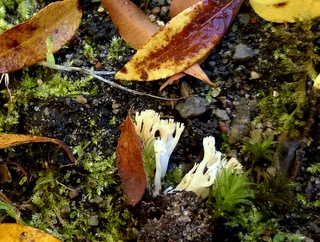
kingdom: Fungi
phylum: Basidiomycota
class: Agaricomycetes
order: Agaricales
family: Clavariaceae
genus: Ramariopsis
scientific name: Ramariopsis
